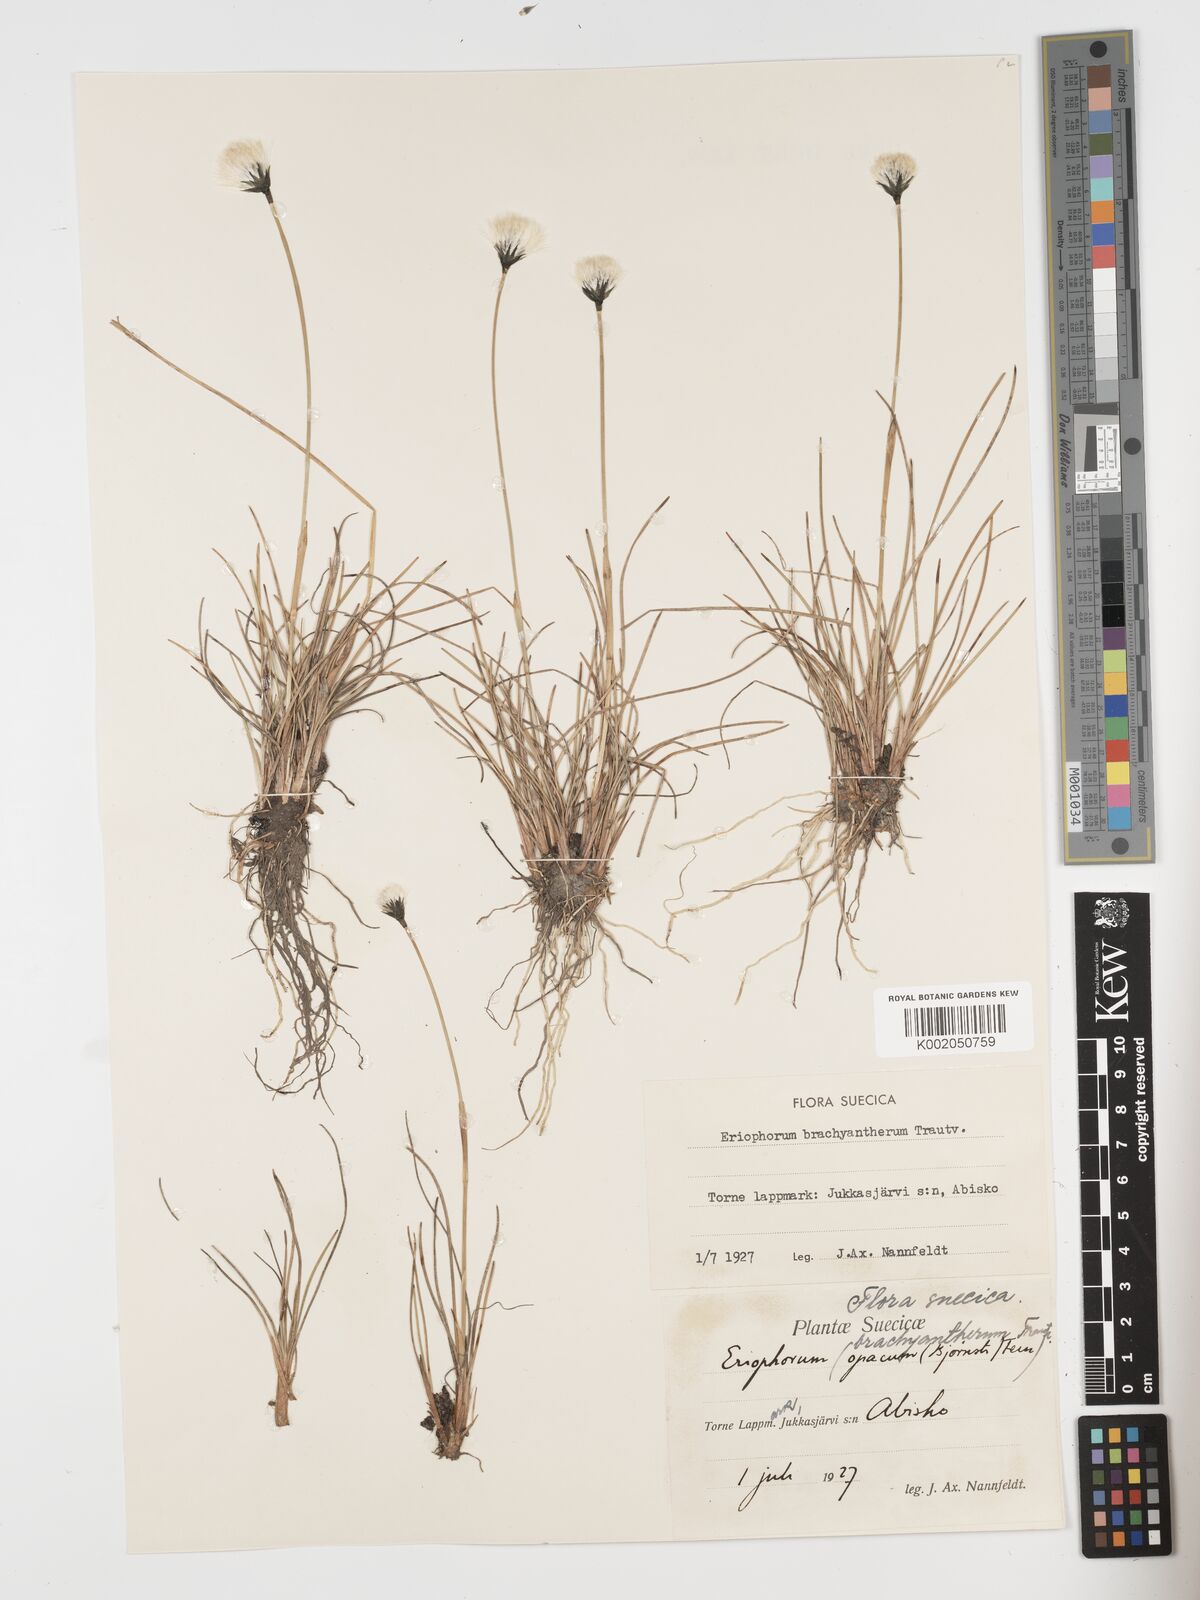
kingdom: Plantae
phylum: Tracheophyta
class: Liliopsida
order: Poales
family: Cyperaceae
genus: Eriophorum
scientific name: Eriophorum brachyantherum
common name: Closed-sheathed cottongrass
